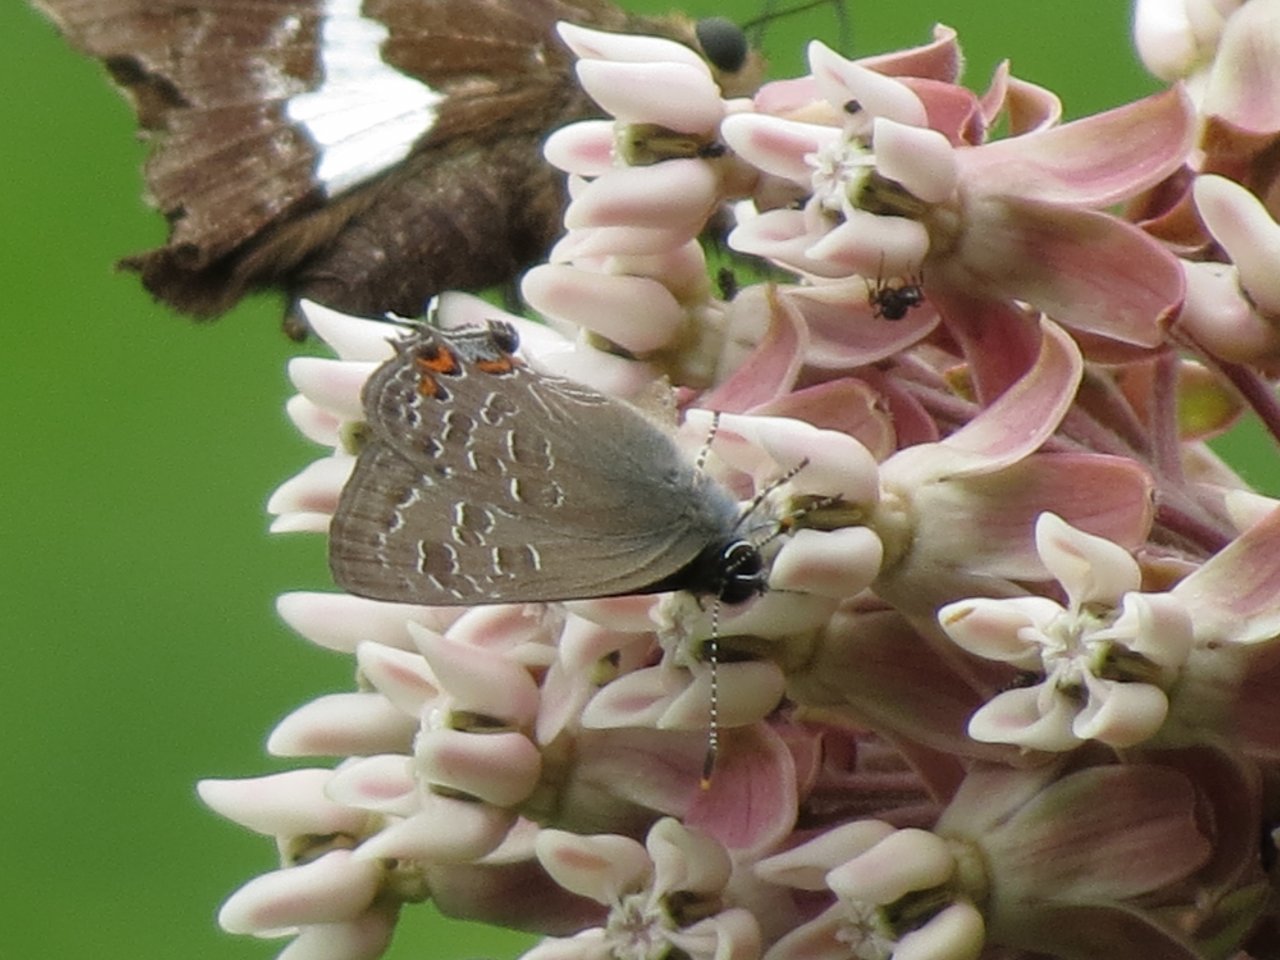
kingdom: Animalia
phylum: Arthropoda
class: Insecta
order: Lepidoptera
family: Lycaenidae
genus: Satyrium
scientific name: Satyrium liparops
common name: Striped Hairstreak
